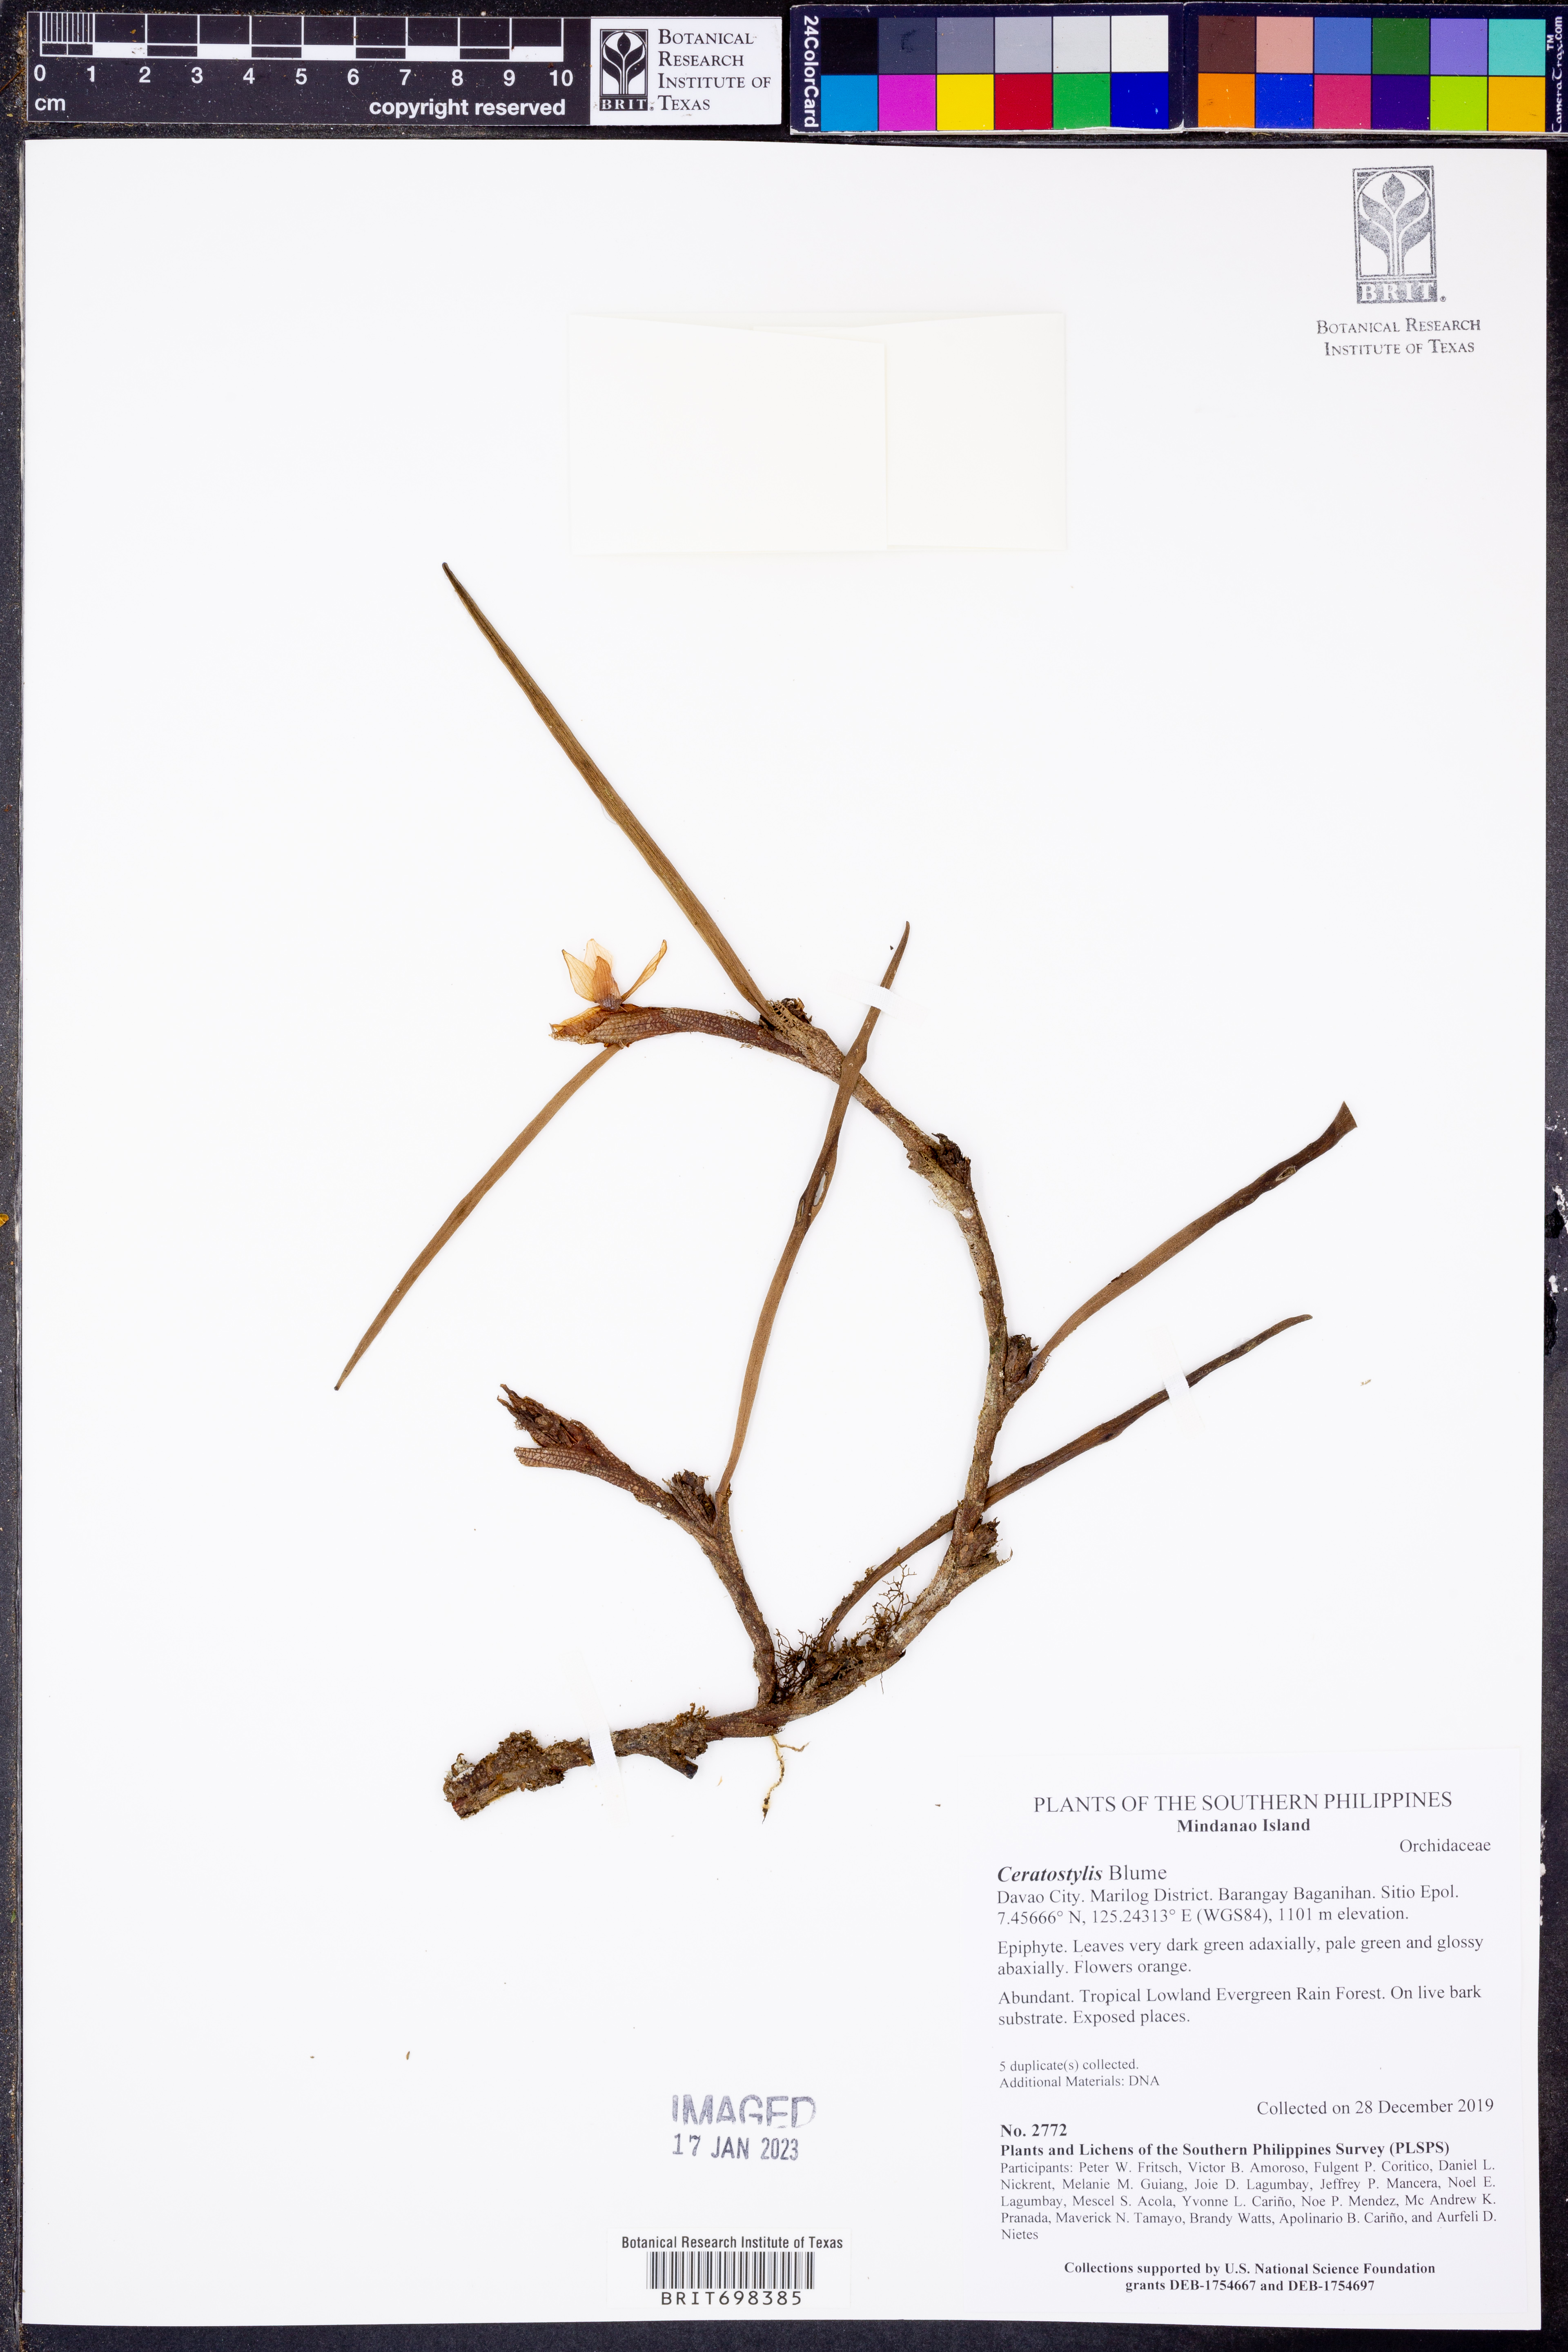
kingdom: Plantae
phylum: Tracheophyta
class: Liliopsida
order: Asparagales
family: Orchidaceae
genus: Ceratostylis
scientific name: Ceratostylis
